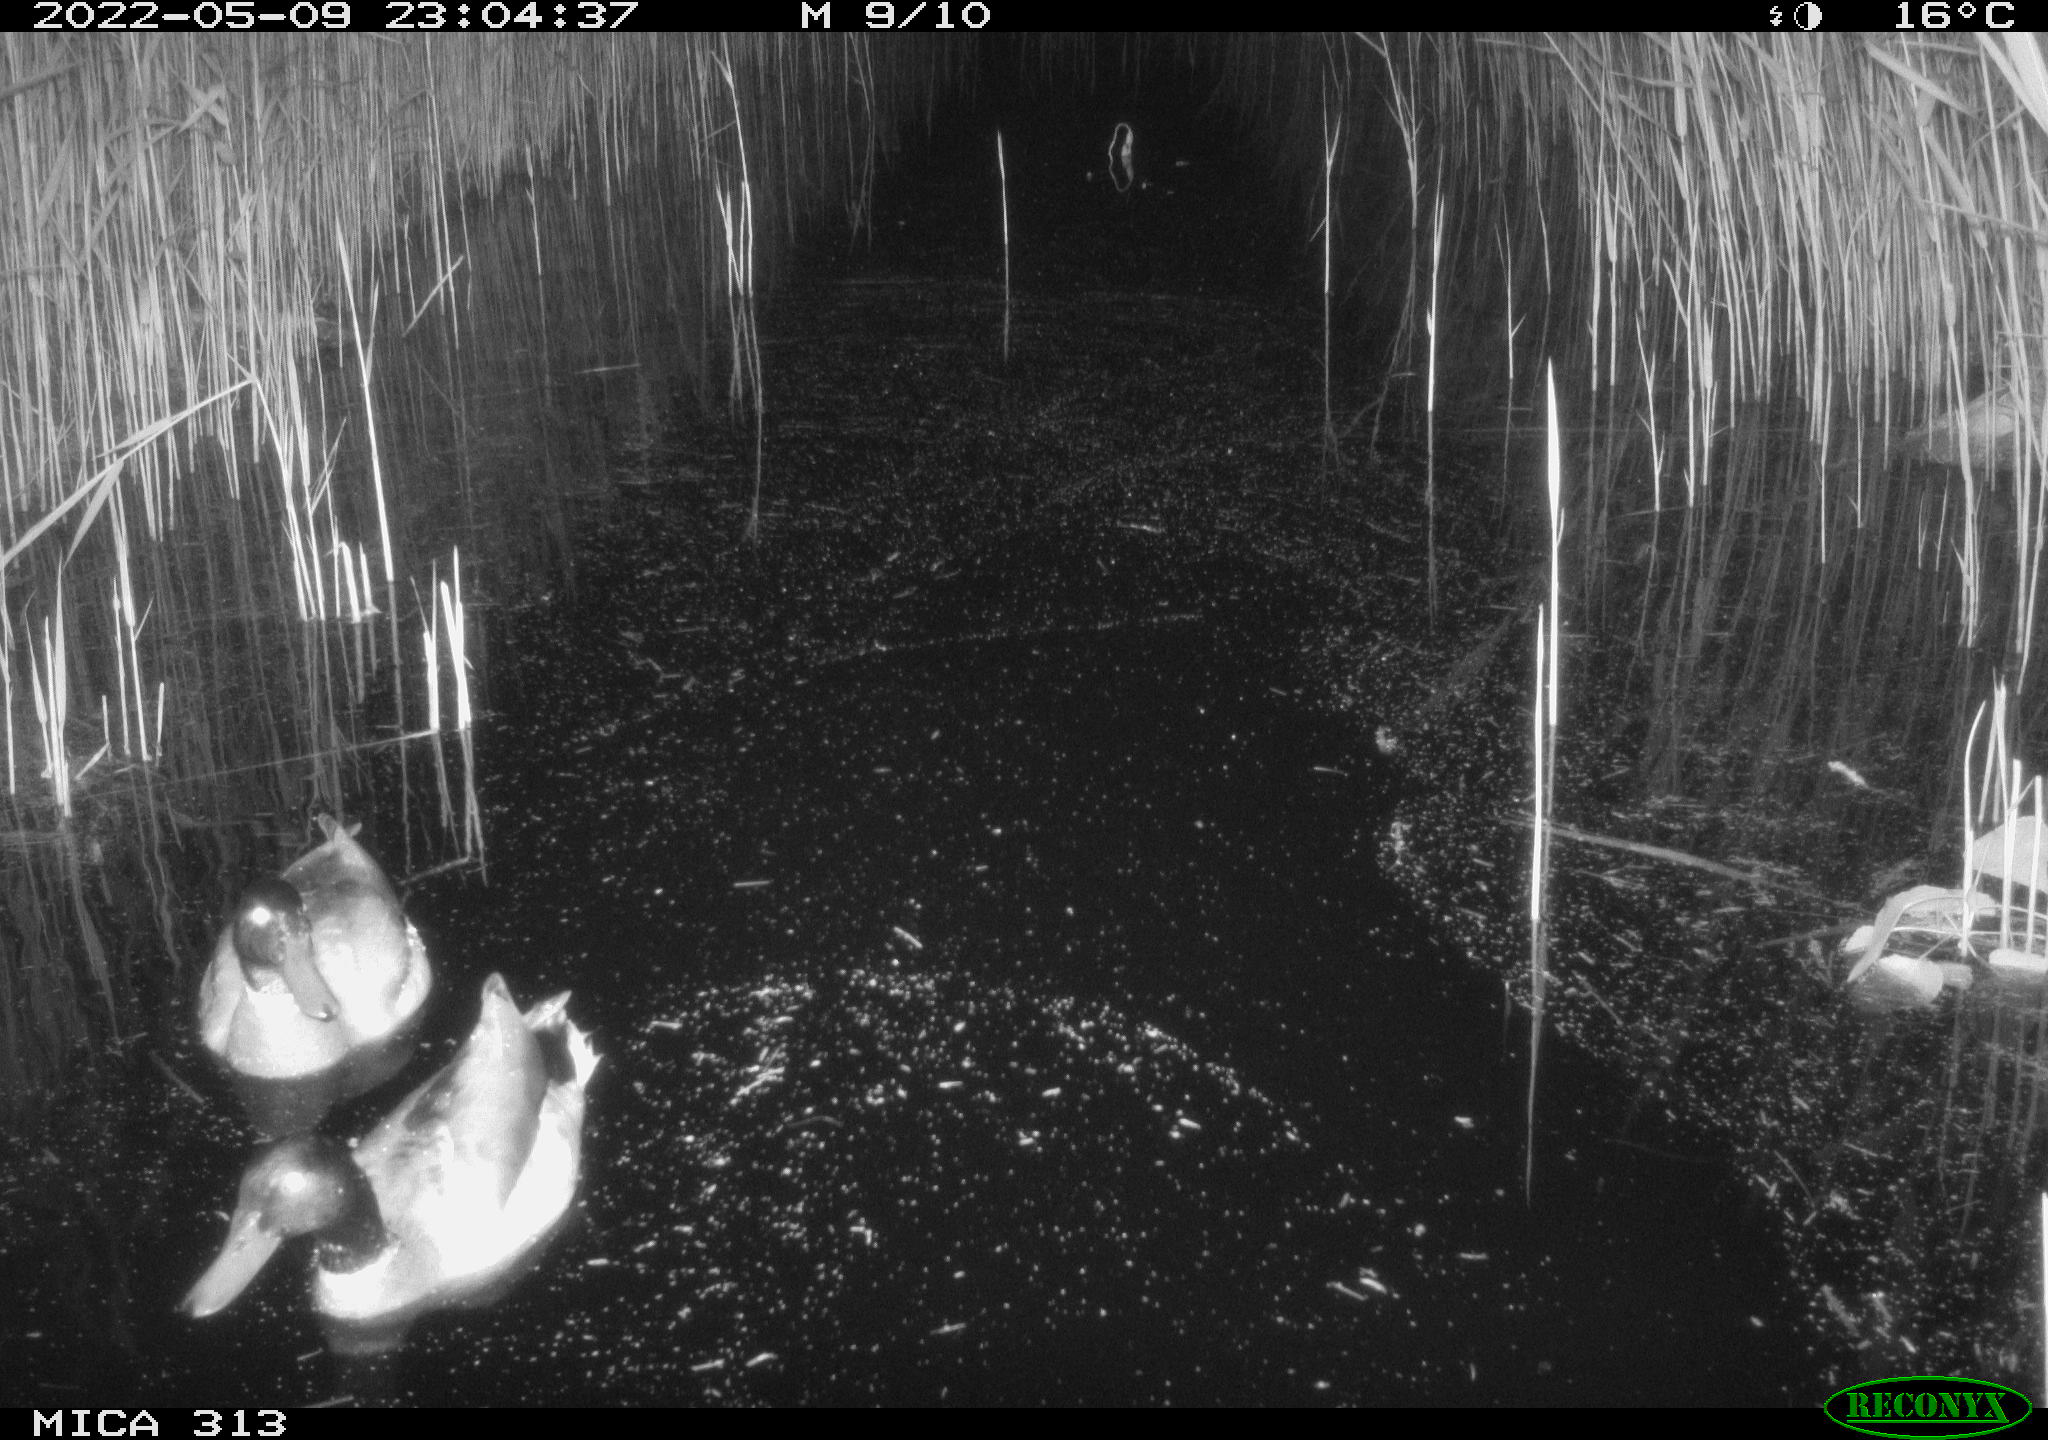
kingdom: Animalia
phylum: Chordata
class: Aves
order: Anseriformes
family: Anatidae
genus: Anas
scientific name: Anas platyrhynchos
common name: Mallard
